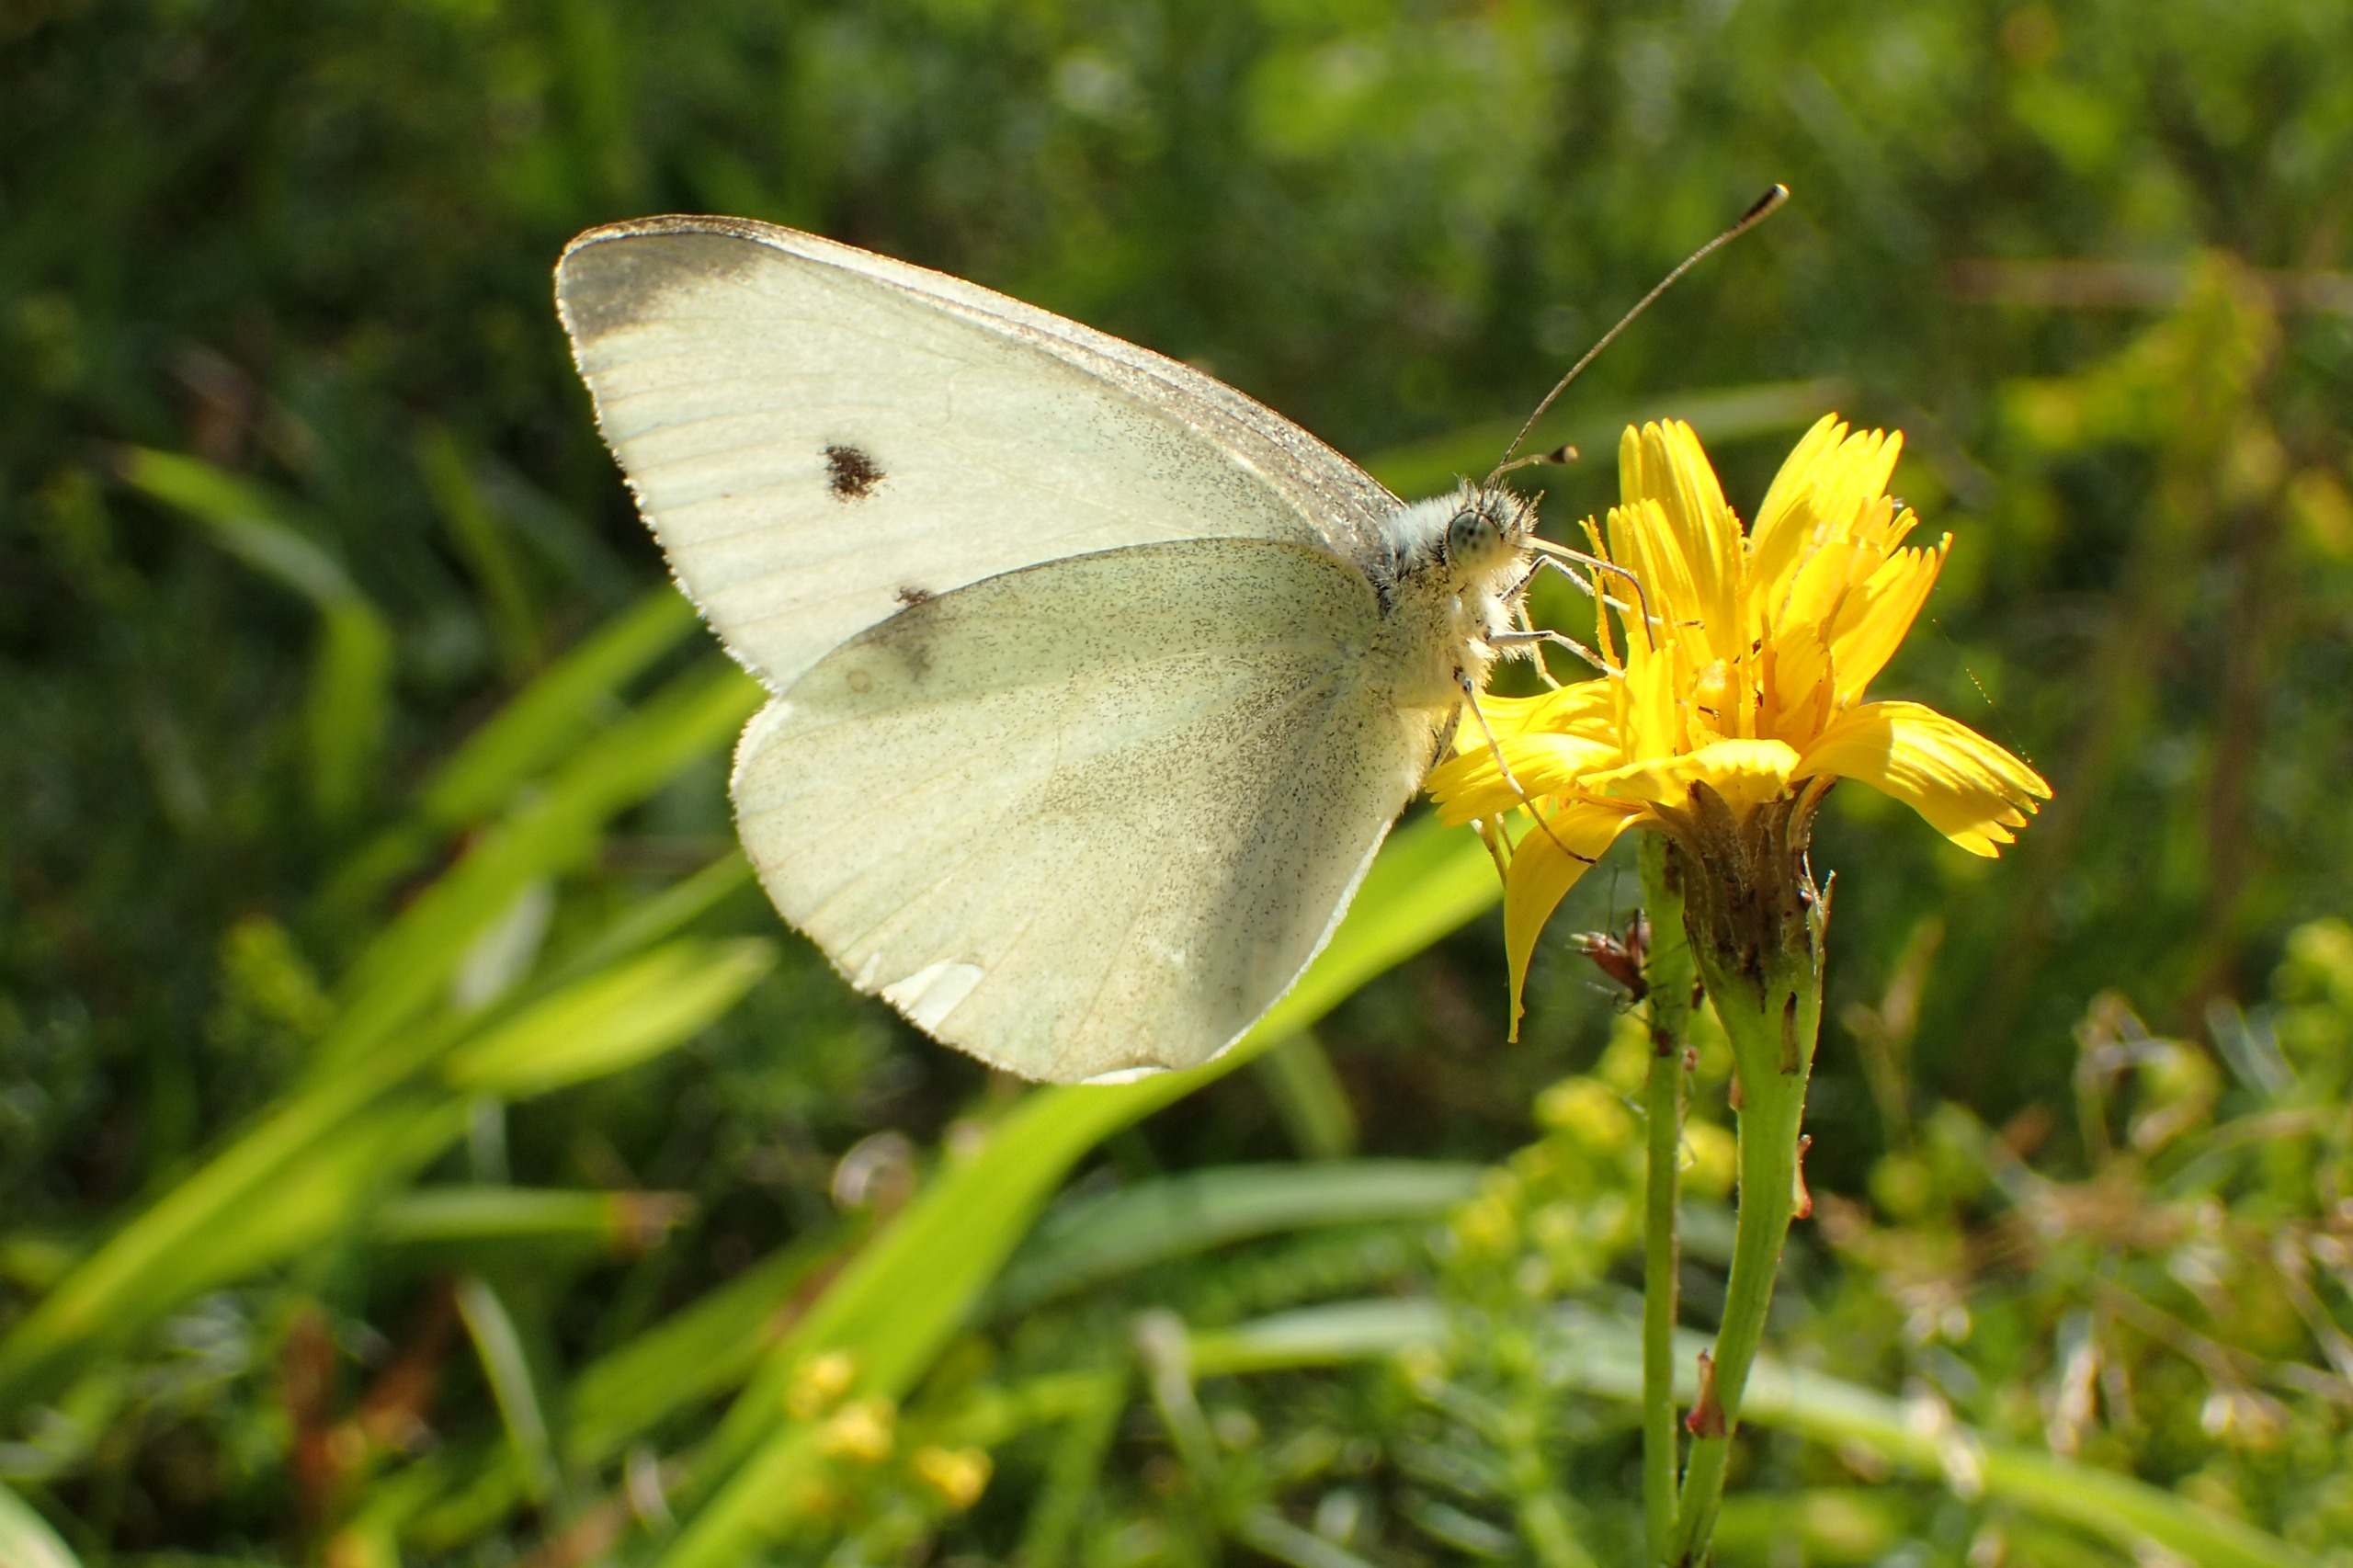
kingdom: Animalia
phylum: Arthropoda
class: Insecta
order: Lepidoptera
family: Pieridae
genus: Pieris
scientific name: Pieris rapae
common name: Lille kålsommerfugl
